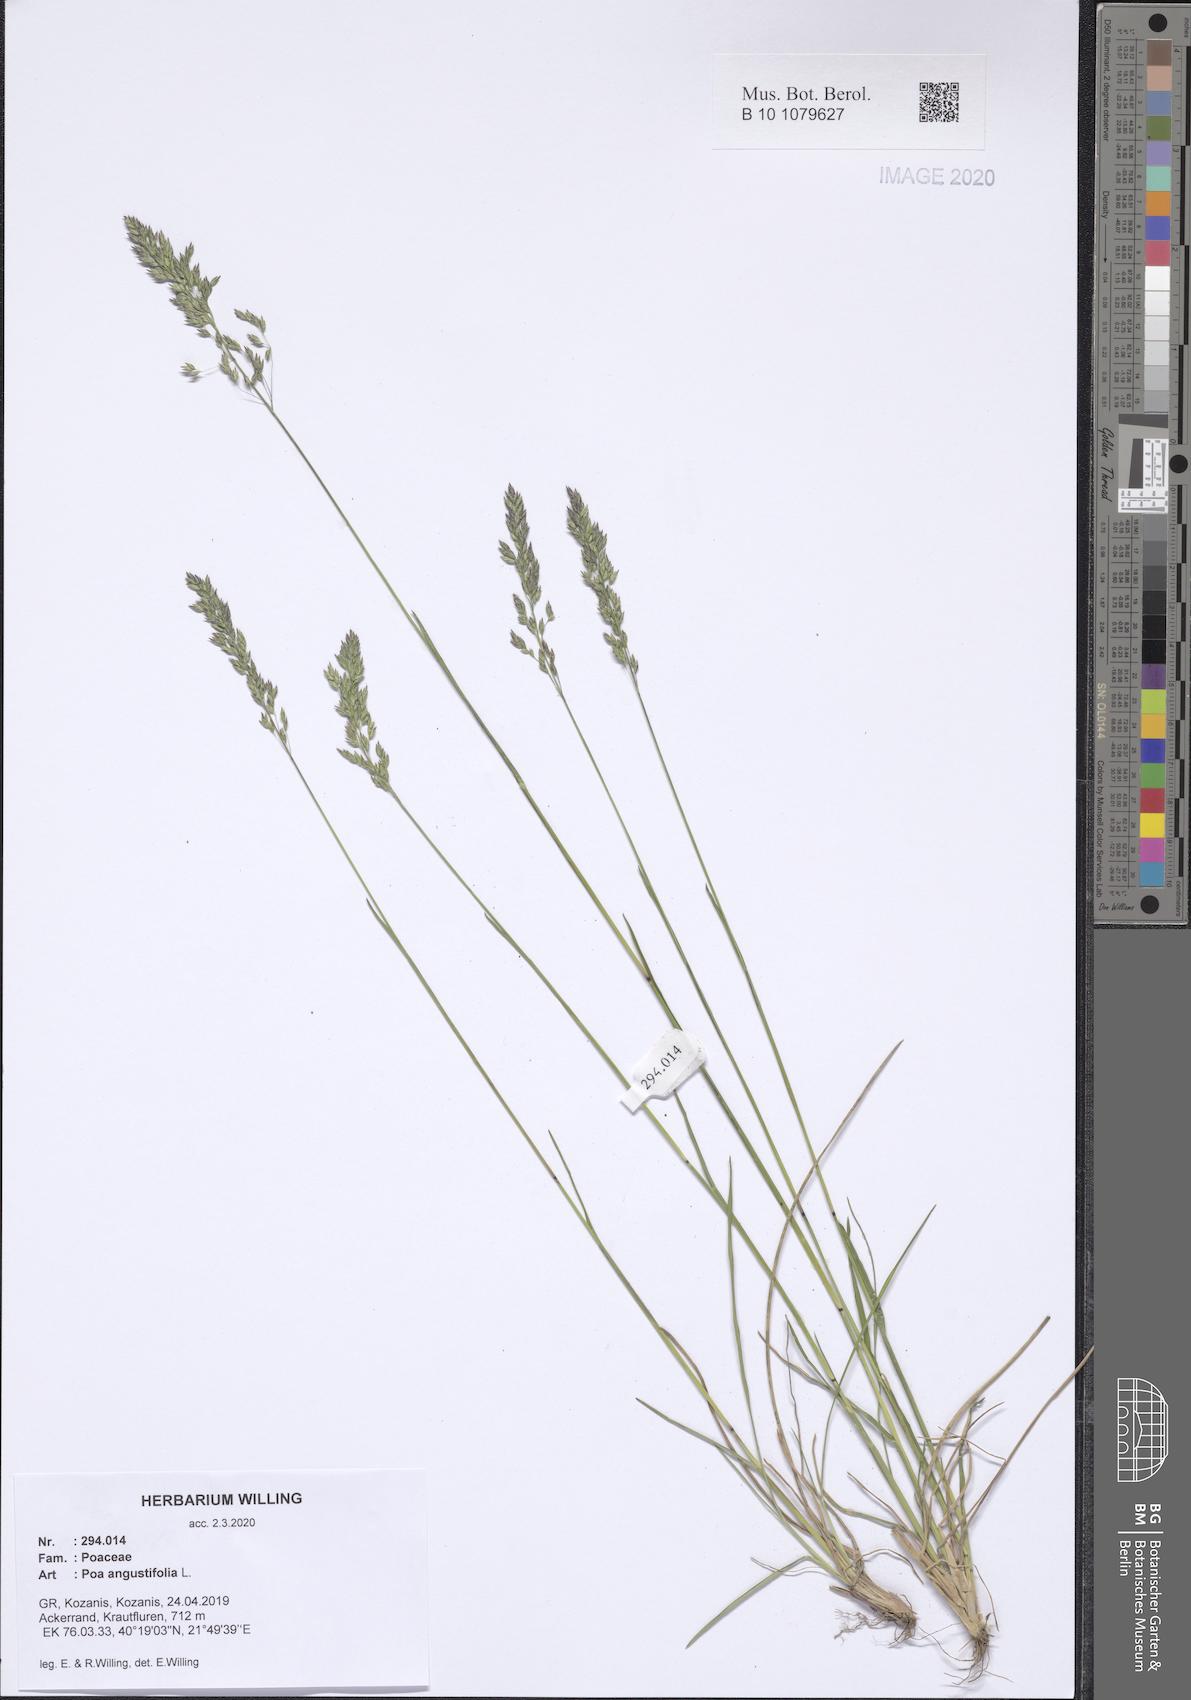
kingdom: Plantae
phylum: Tracheophyta
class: Liliopsida
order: Poales
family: Poaceae
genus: Poa
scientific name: Poa angustifolia
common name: Narrow-leaved meadow-grass
